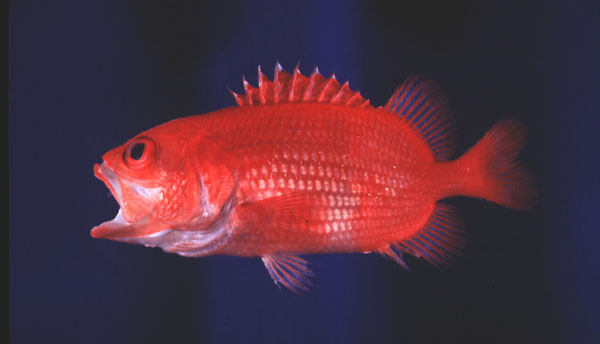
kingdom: Animalia
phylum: Chordata
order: Beryciformes
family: Holocentridae
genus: Plectrypops
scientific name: Plectrypops lima
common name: Cardinal soldierfish
